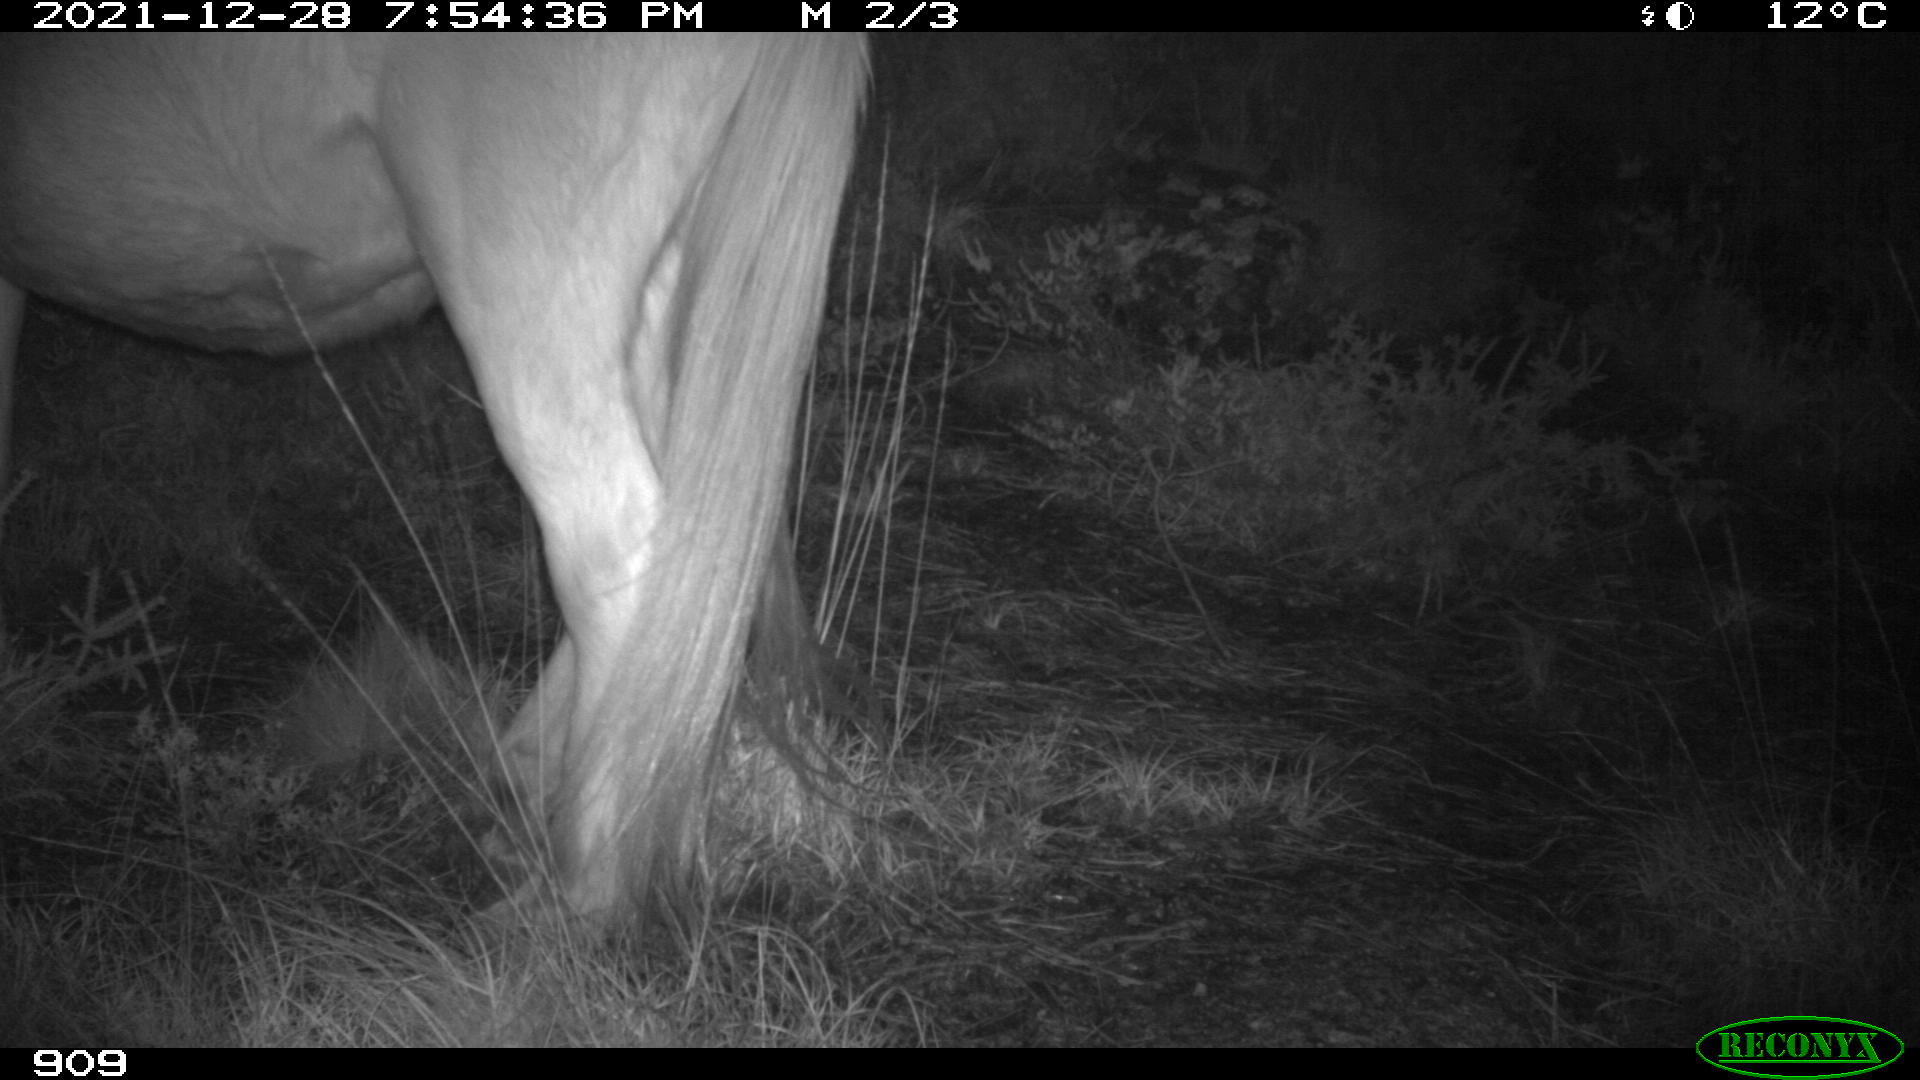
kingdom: Animalia
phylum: Chordata
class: Mammalia
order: Perissodactyla
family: Equidae
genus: Equus
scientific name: Equus caballus
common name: Horse
